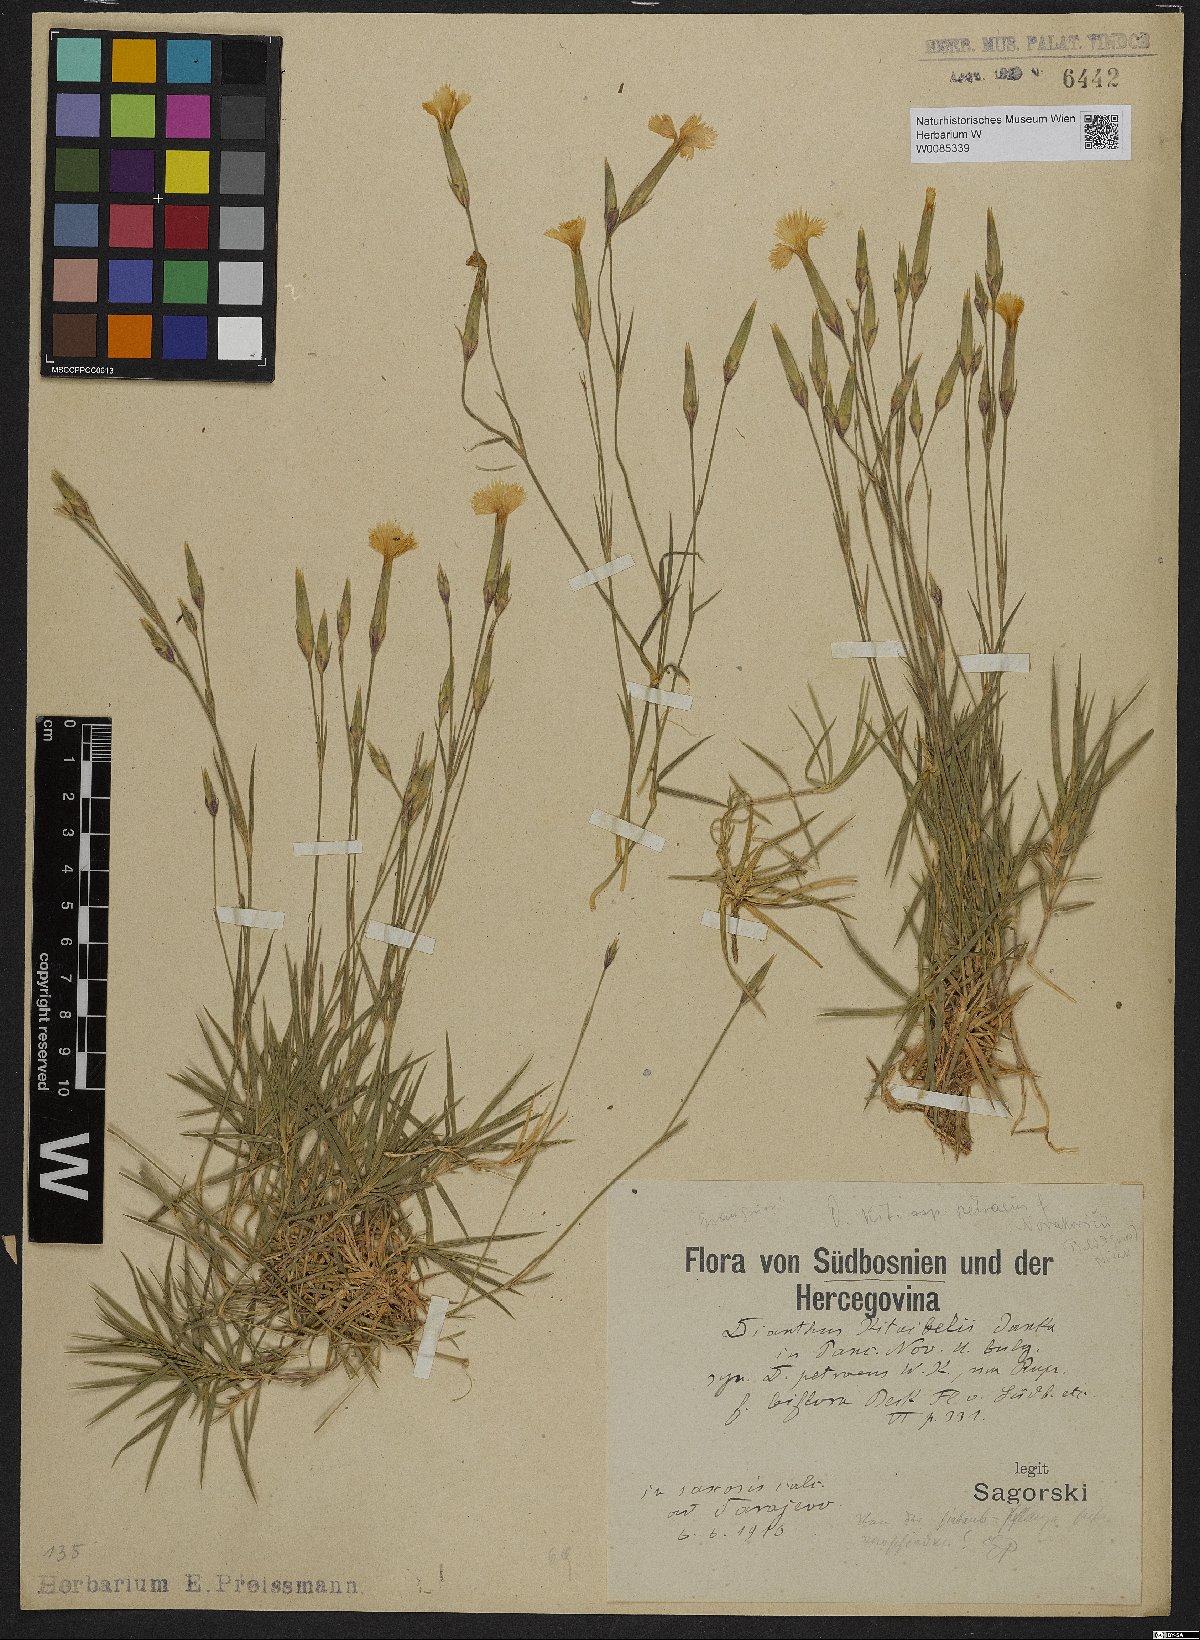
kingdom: Plantae
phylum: Tracheophyta
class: Magnoliopsida
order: Caryophyllales
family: Caryophyllaceae
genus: Dianthus
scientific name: Dianthus petraeus
